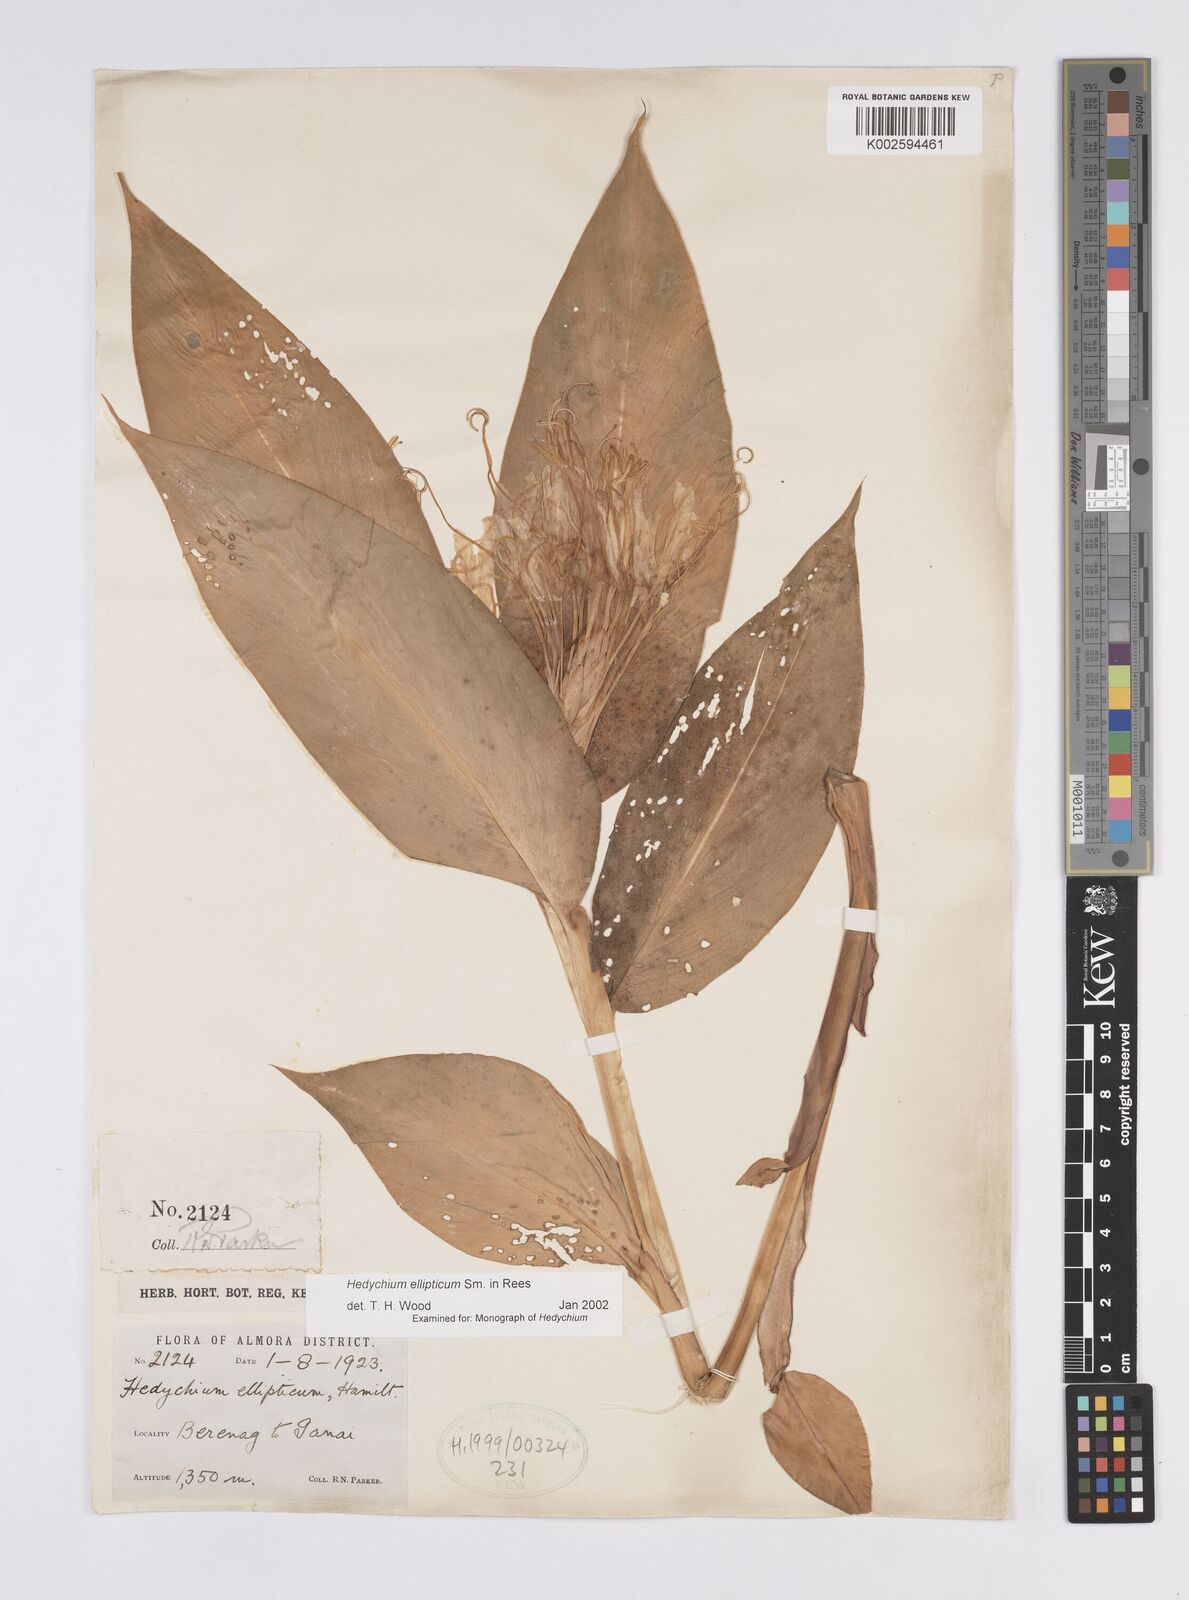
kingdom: Plantae
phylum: Tracheophyta
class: Liliopsida
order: Zingiberales
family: Zingiberaceae
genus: Hedychium
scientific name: Hedychium ellipticum
